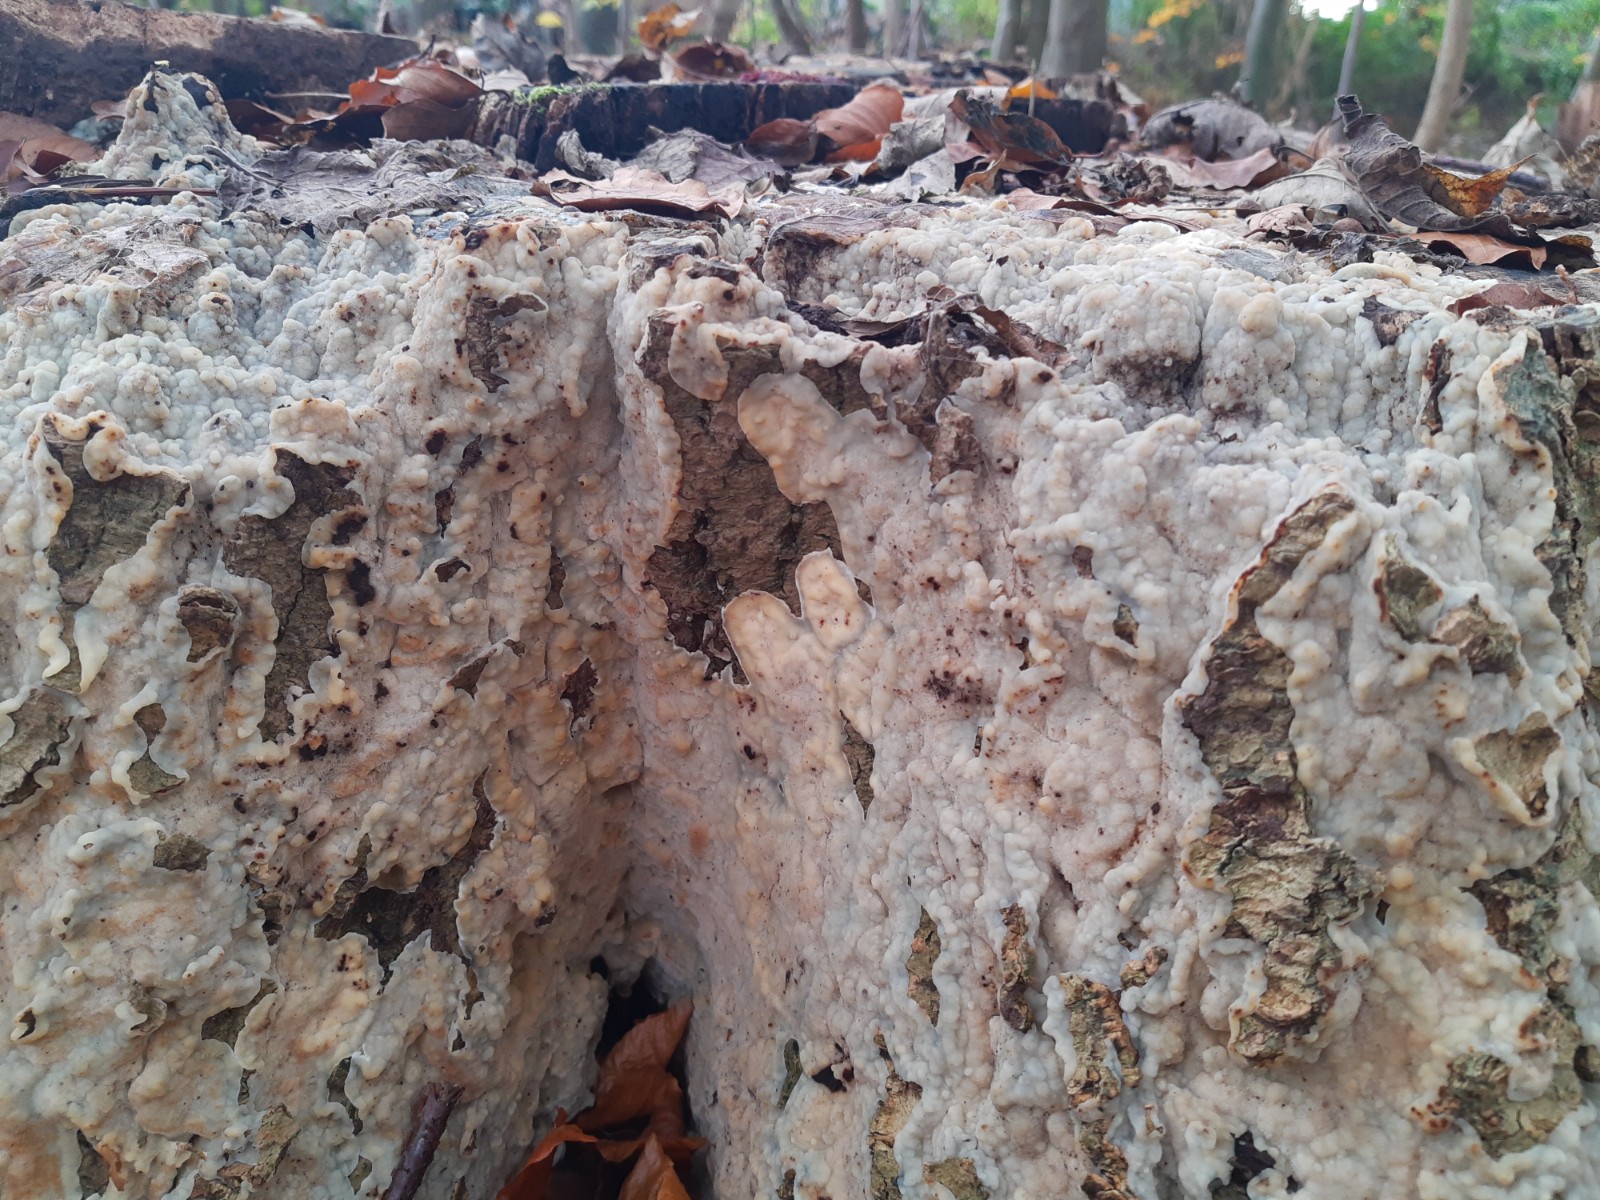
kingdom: Fungi
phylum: Basidiomycota
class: Agaricomycetes
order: Polyporales
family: Meruliaceae
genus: Physisporinus
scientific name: Physisporinus vitreus
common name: mastesvamp
